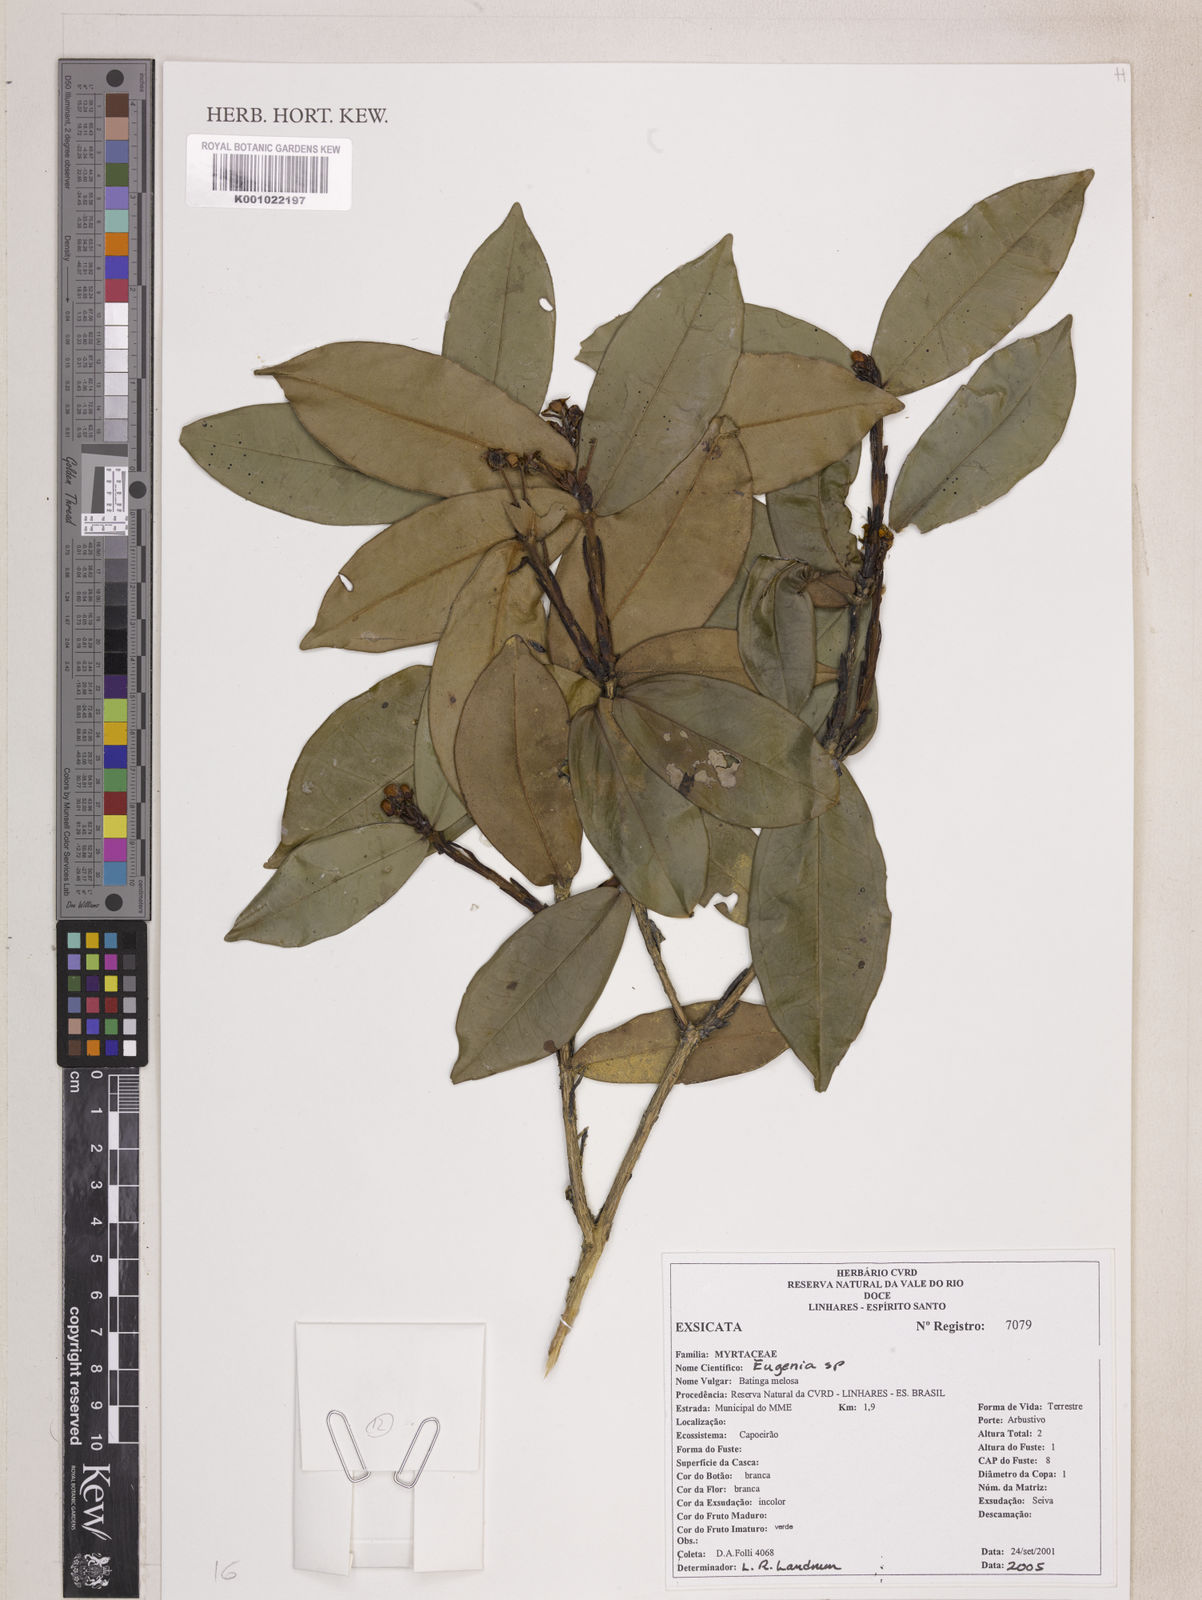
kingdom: Plantae
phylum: Tracheophyta
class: Magnoliopsida
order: Myrtales
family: Myrtaceae
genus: Eugenia
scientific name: Eugenia cataphyllea
